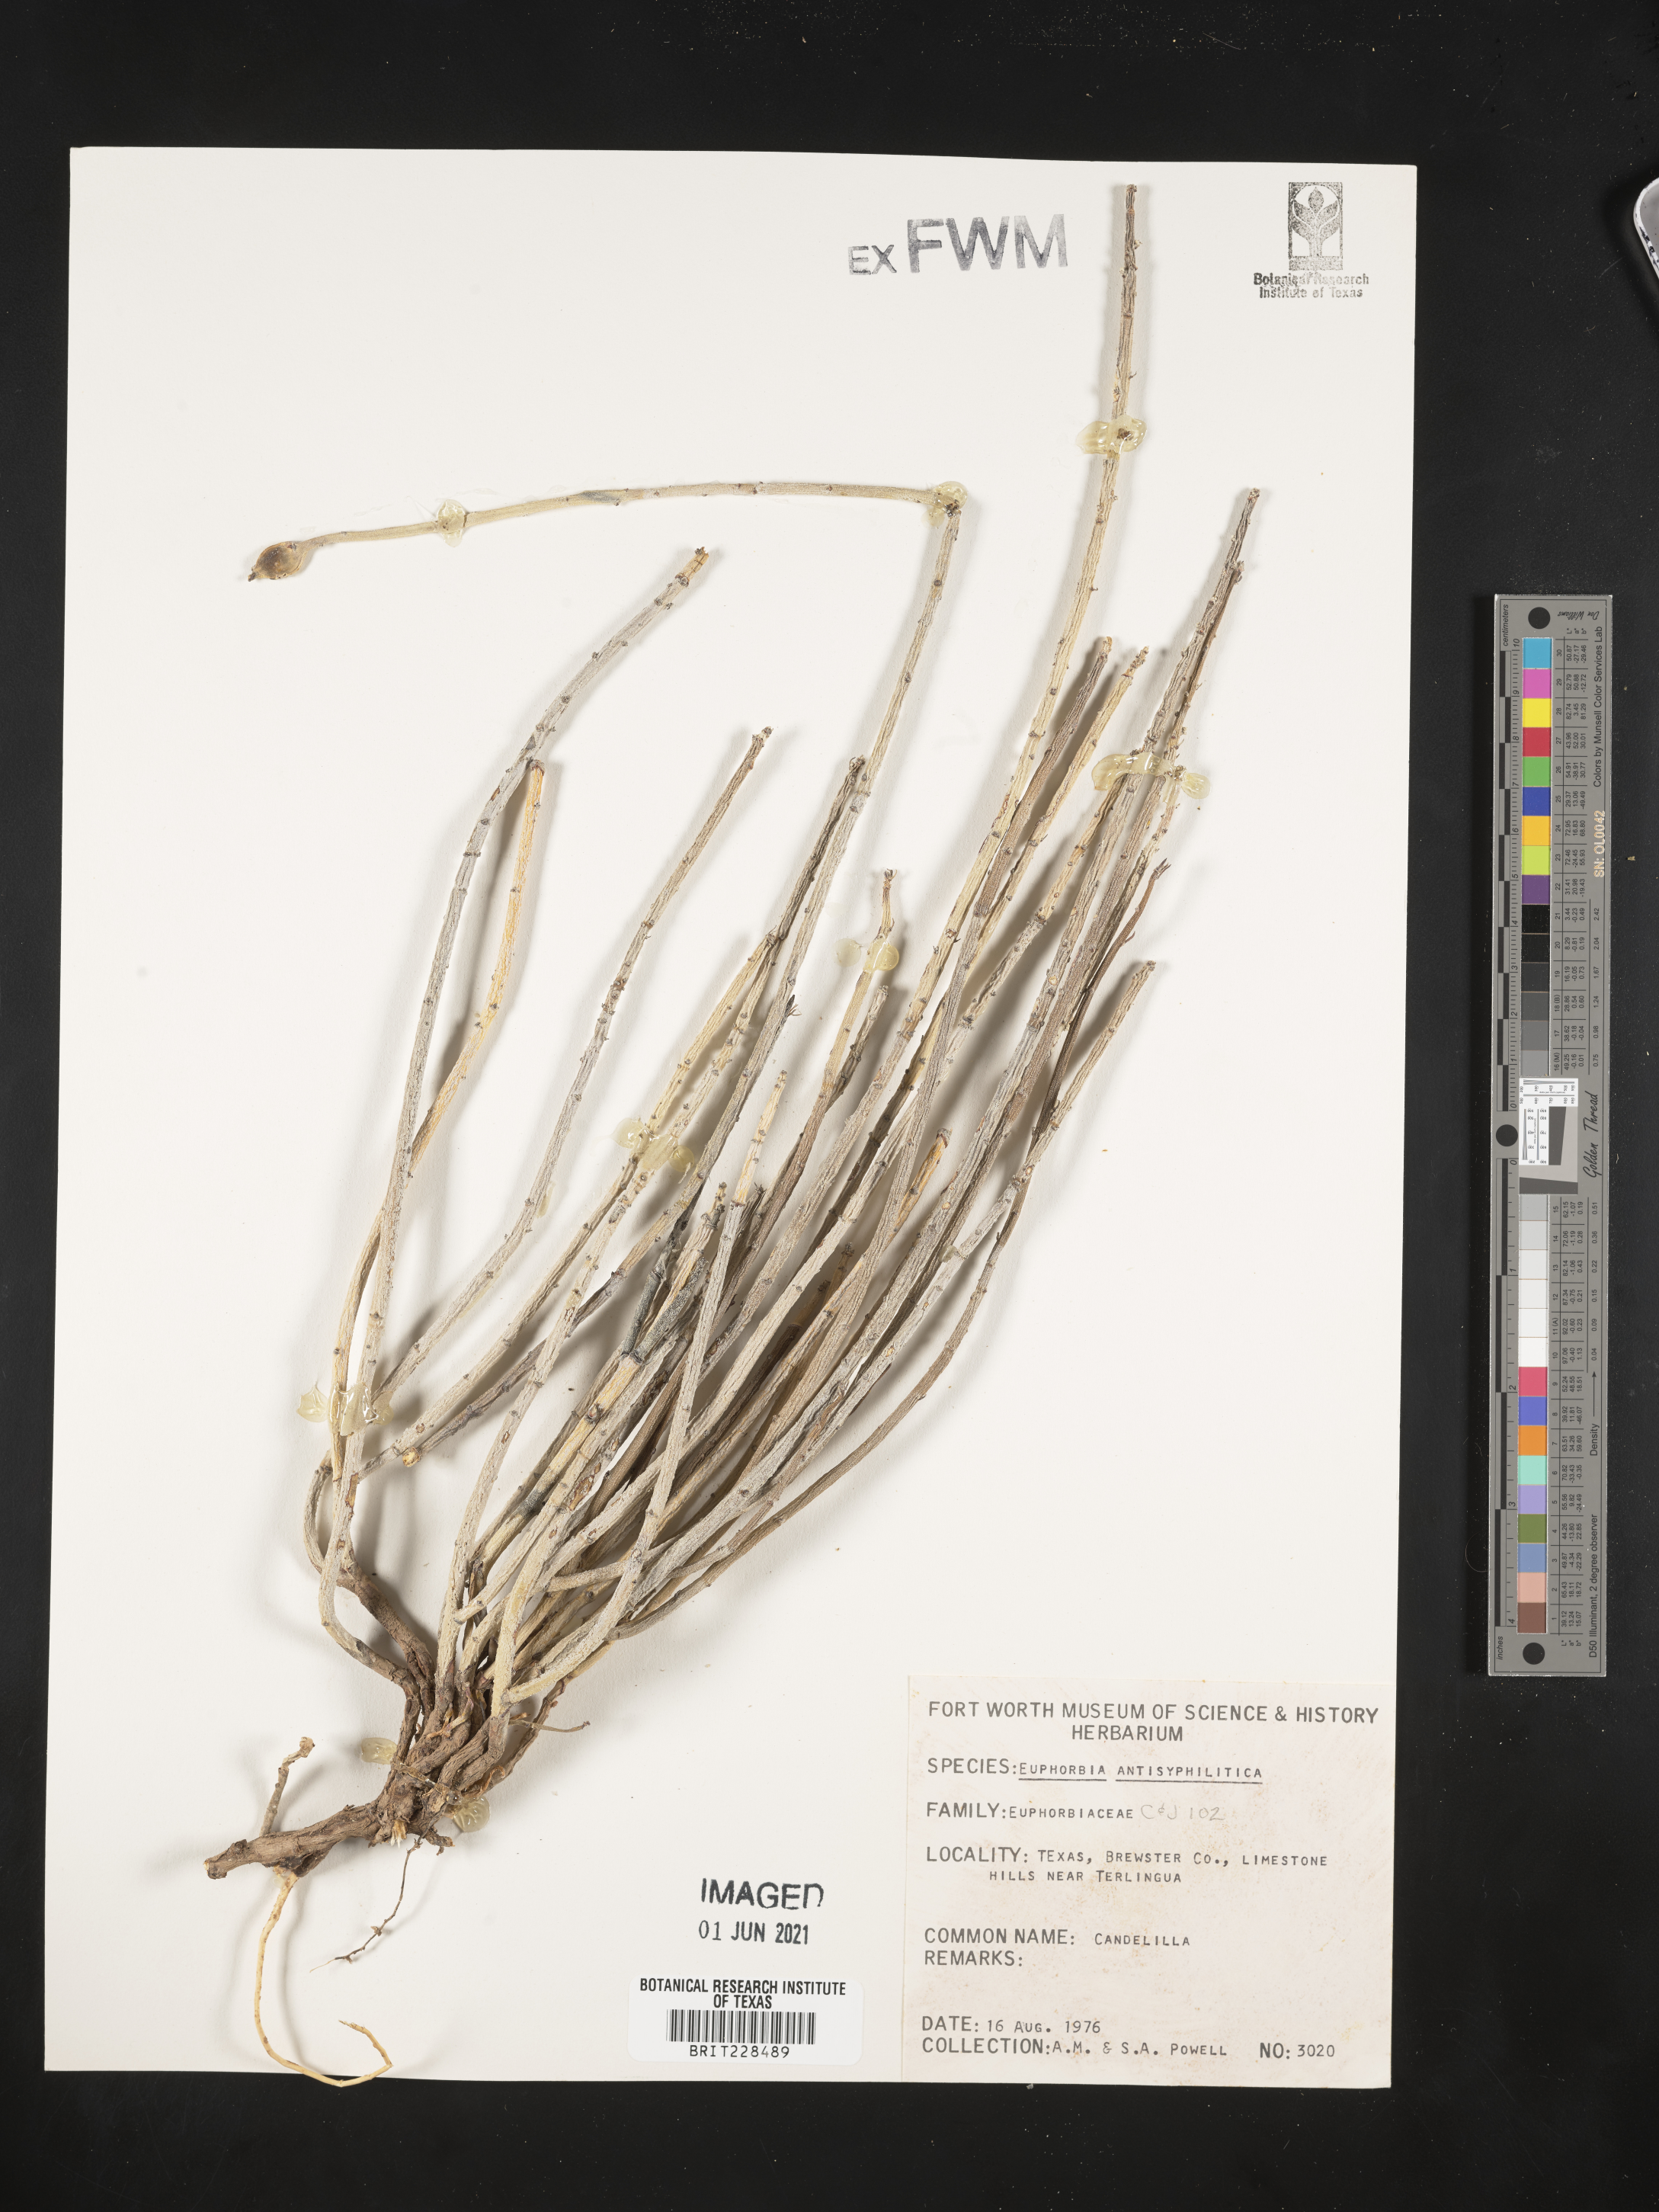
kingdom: Plantae
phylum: Tracheophyta
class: Magnoliopsida
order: Malpighiales
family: Euphorbiaceae
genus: Euphorbia
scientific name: Euphorbia antisyphilitica
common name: Candelilla
